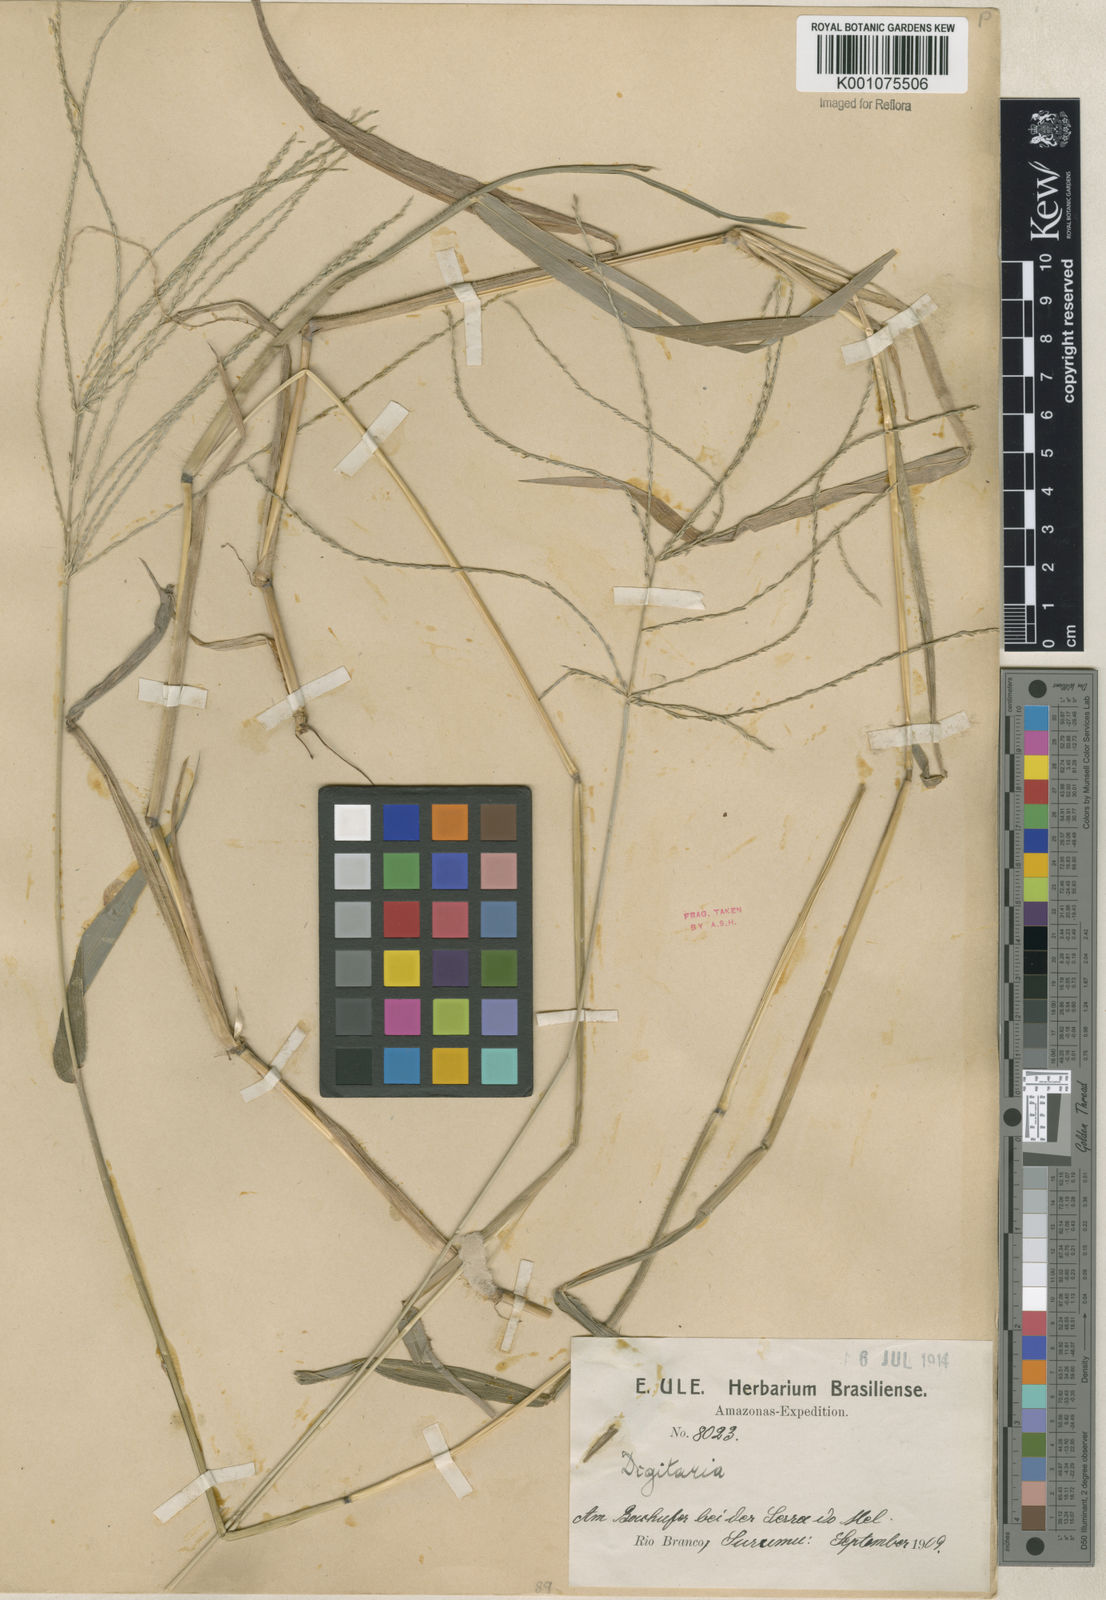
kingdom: Plantae
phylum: Tracheophyta
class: Liliopsida
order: Poales
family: Poaceae
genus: Digitaria
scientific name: Digitaria horizontalis
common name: Jamaican crabgrass
